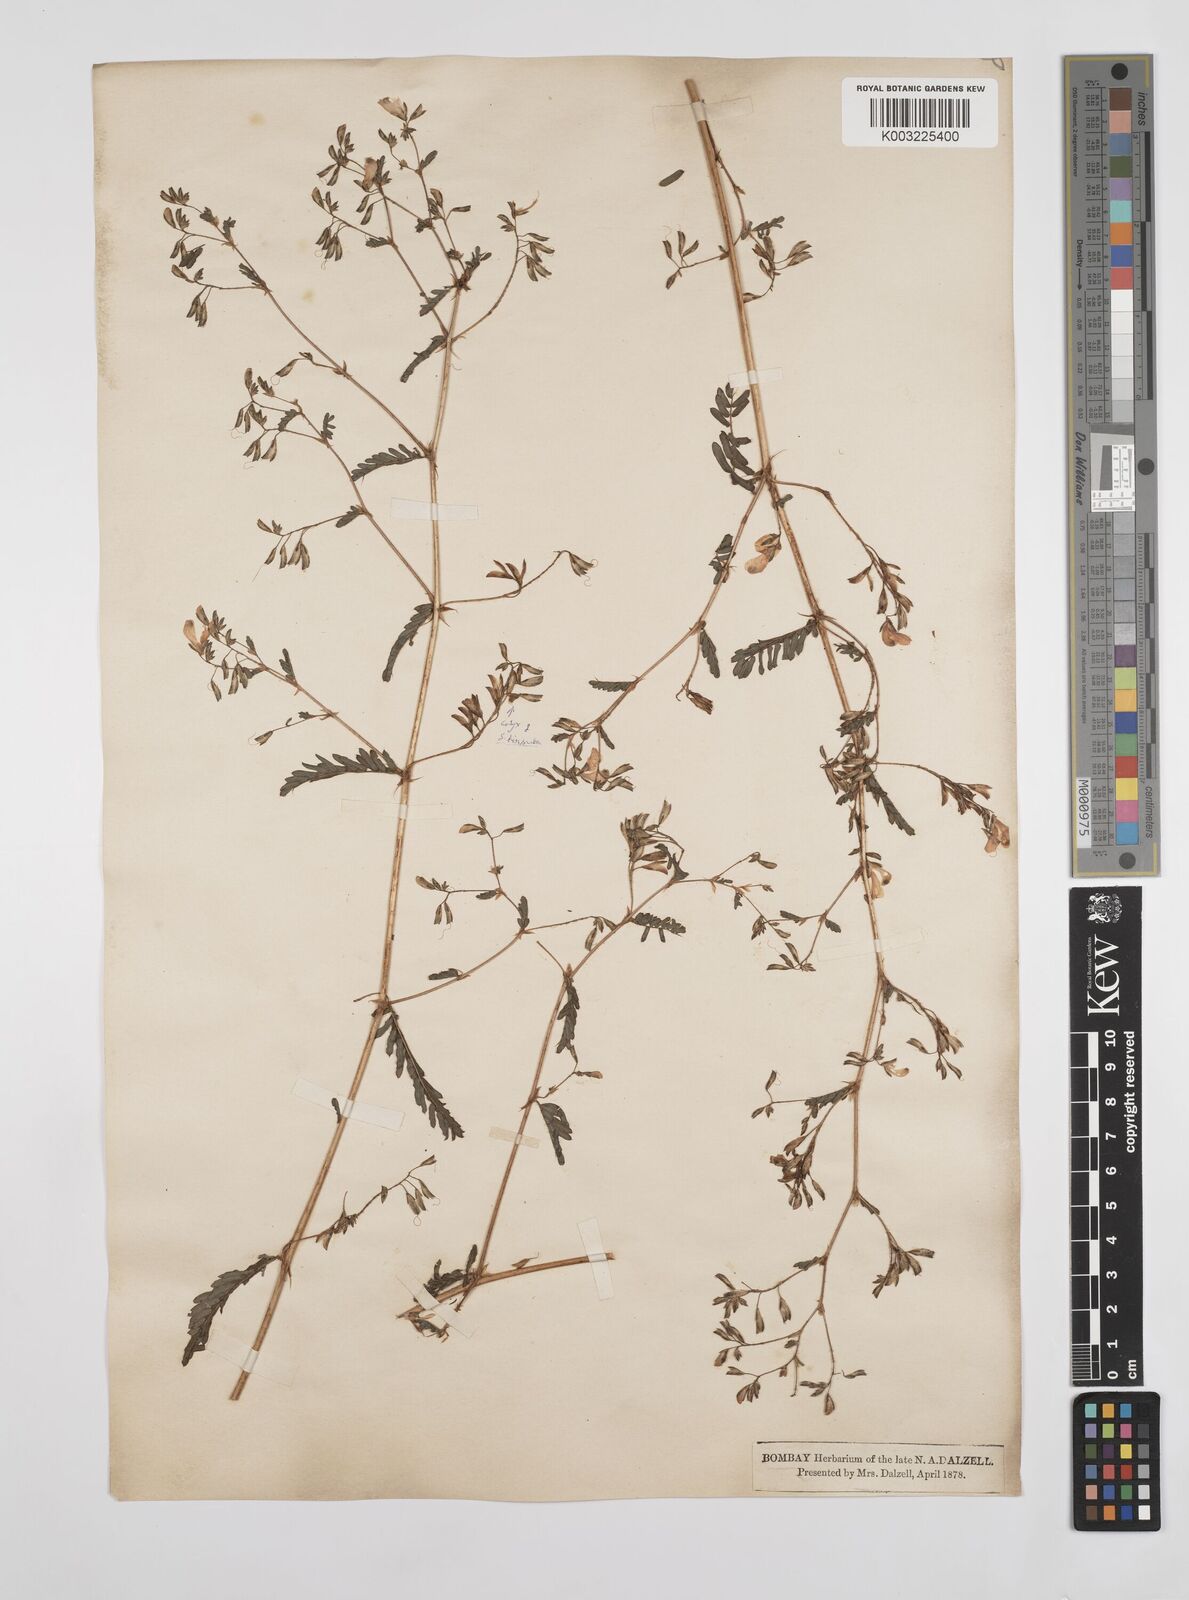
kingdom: Plantae
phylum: Tracheophyta
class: Magnoliopsida
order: Fabales
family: Fabaceae
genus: Smithia
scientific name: Smithia purpurea
